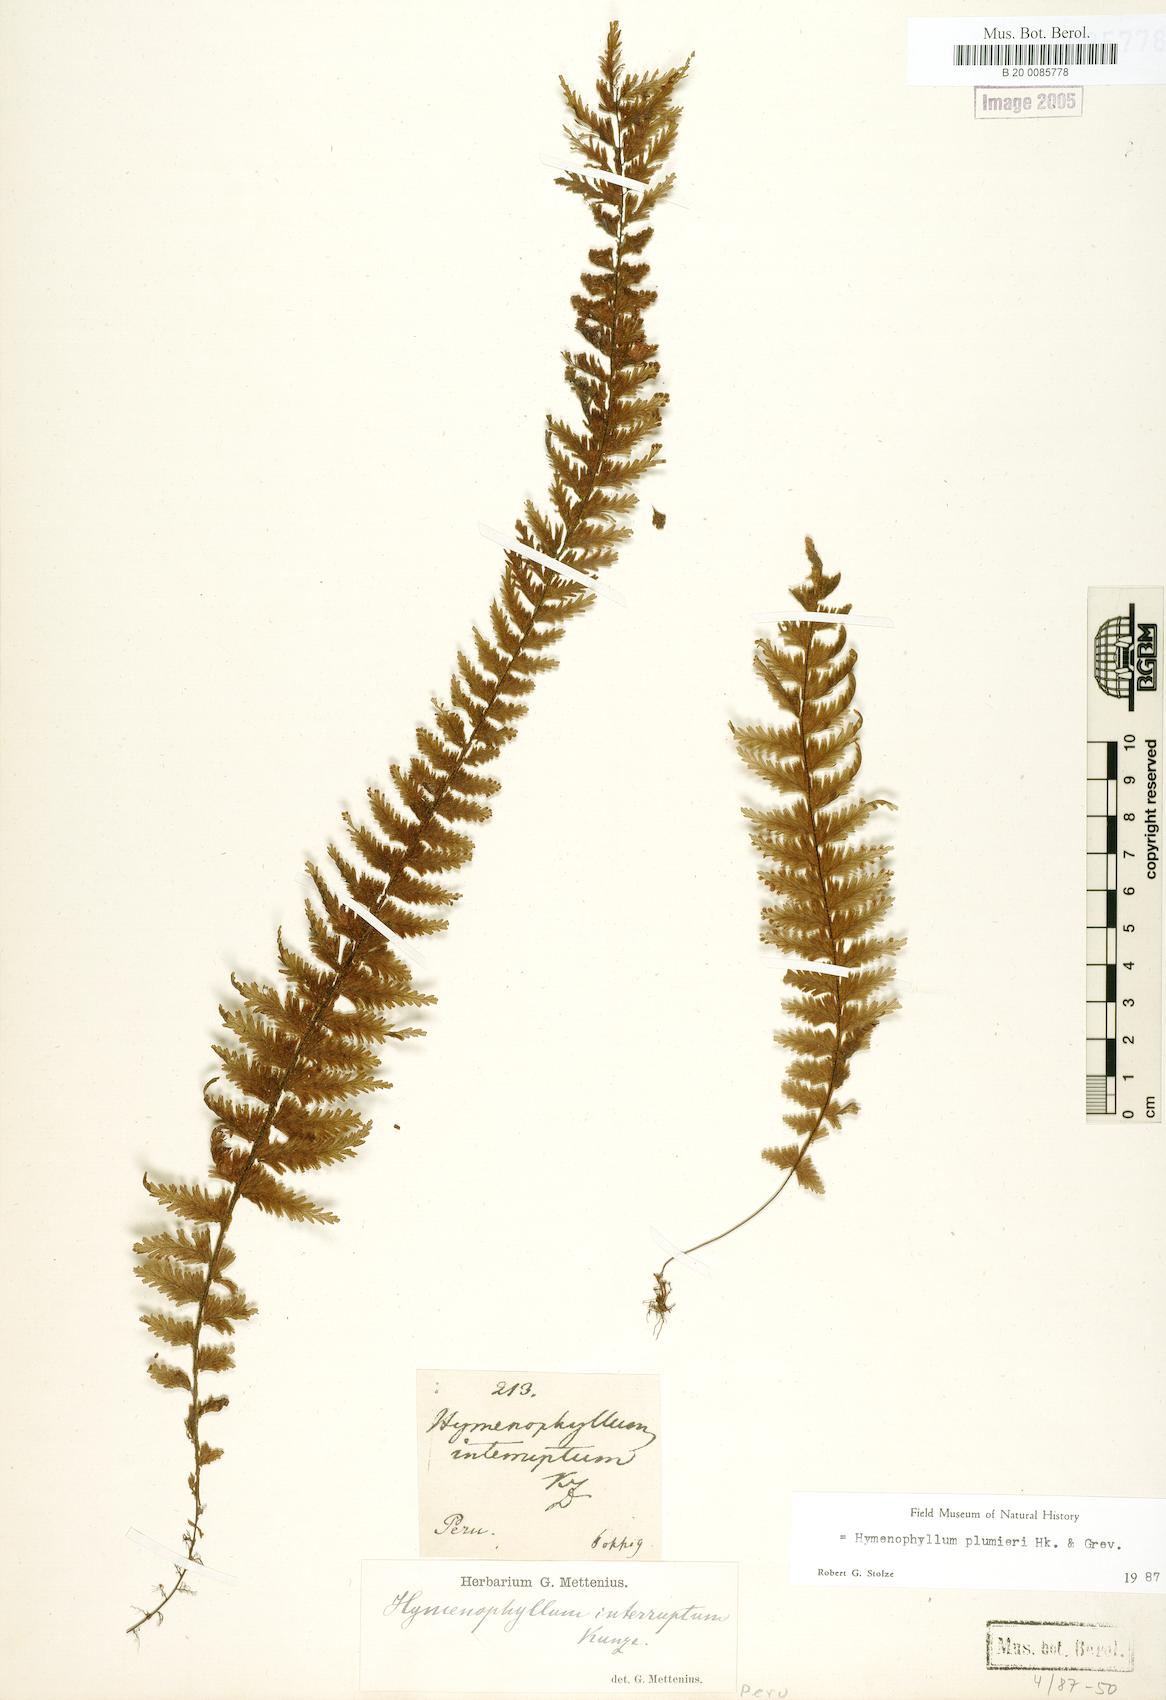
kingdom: Plantae
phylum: Tracheophyta
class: Polypodiopsida
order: Hymenophyllales
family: Hymenophyllaceae
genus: Hymenophyllum
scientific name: Hymenophyllum plumieri
